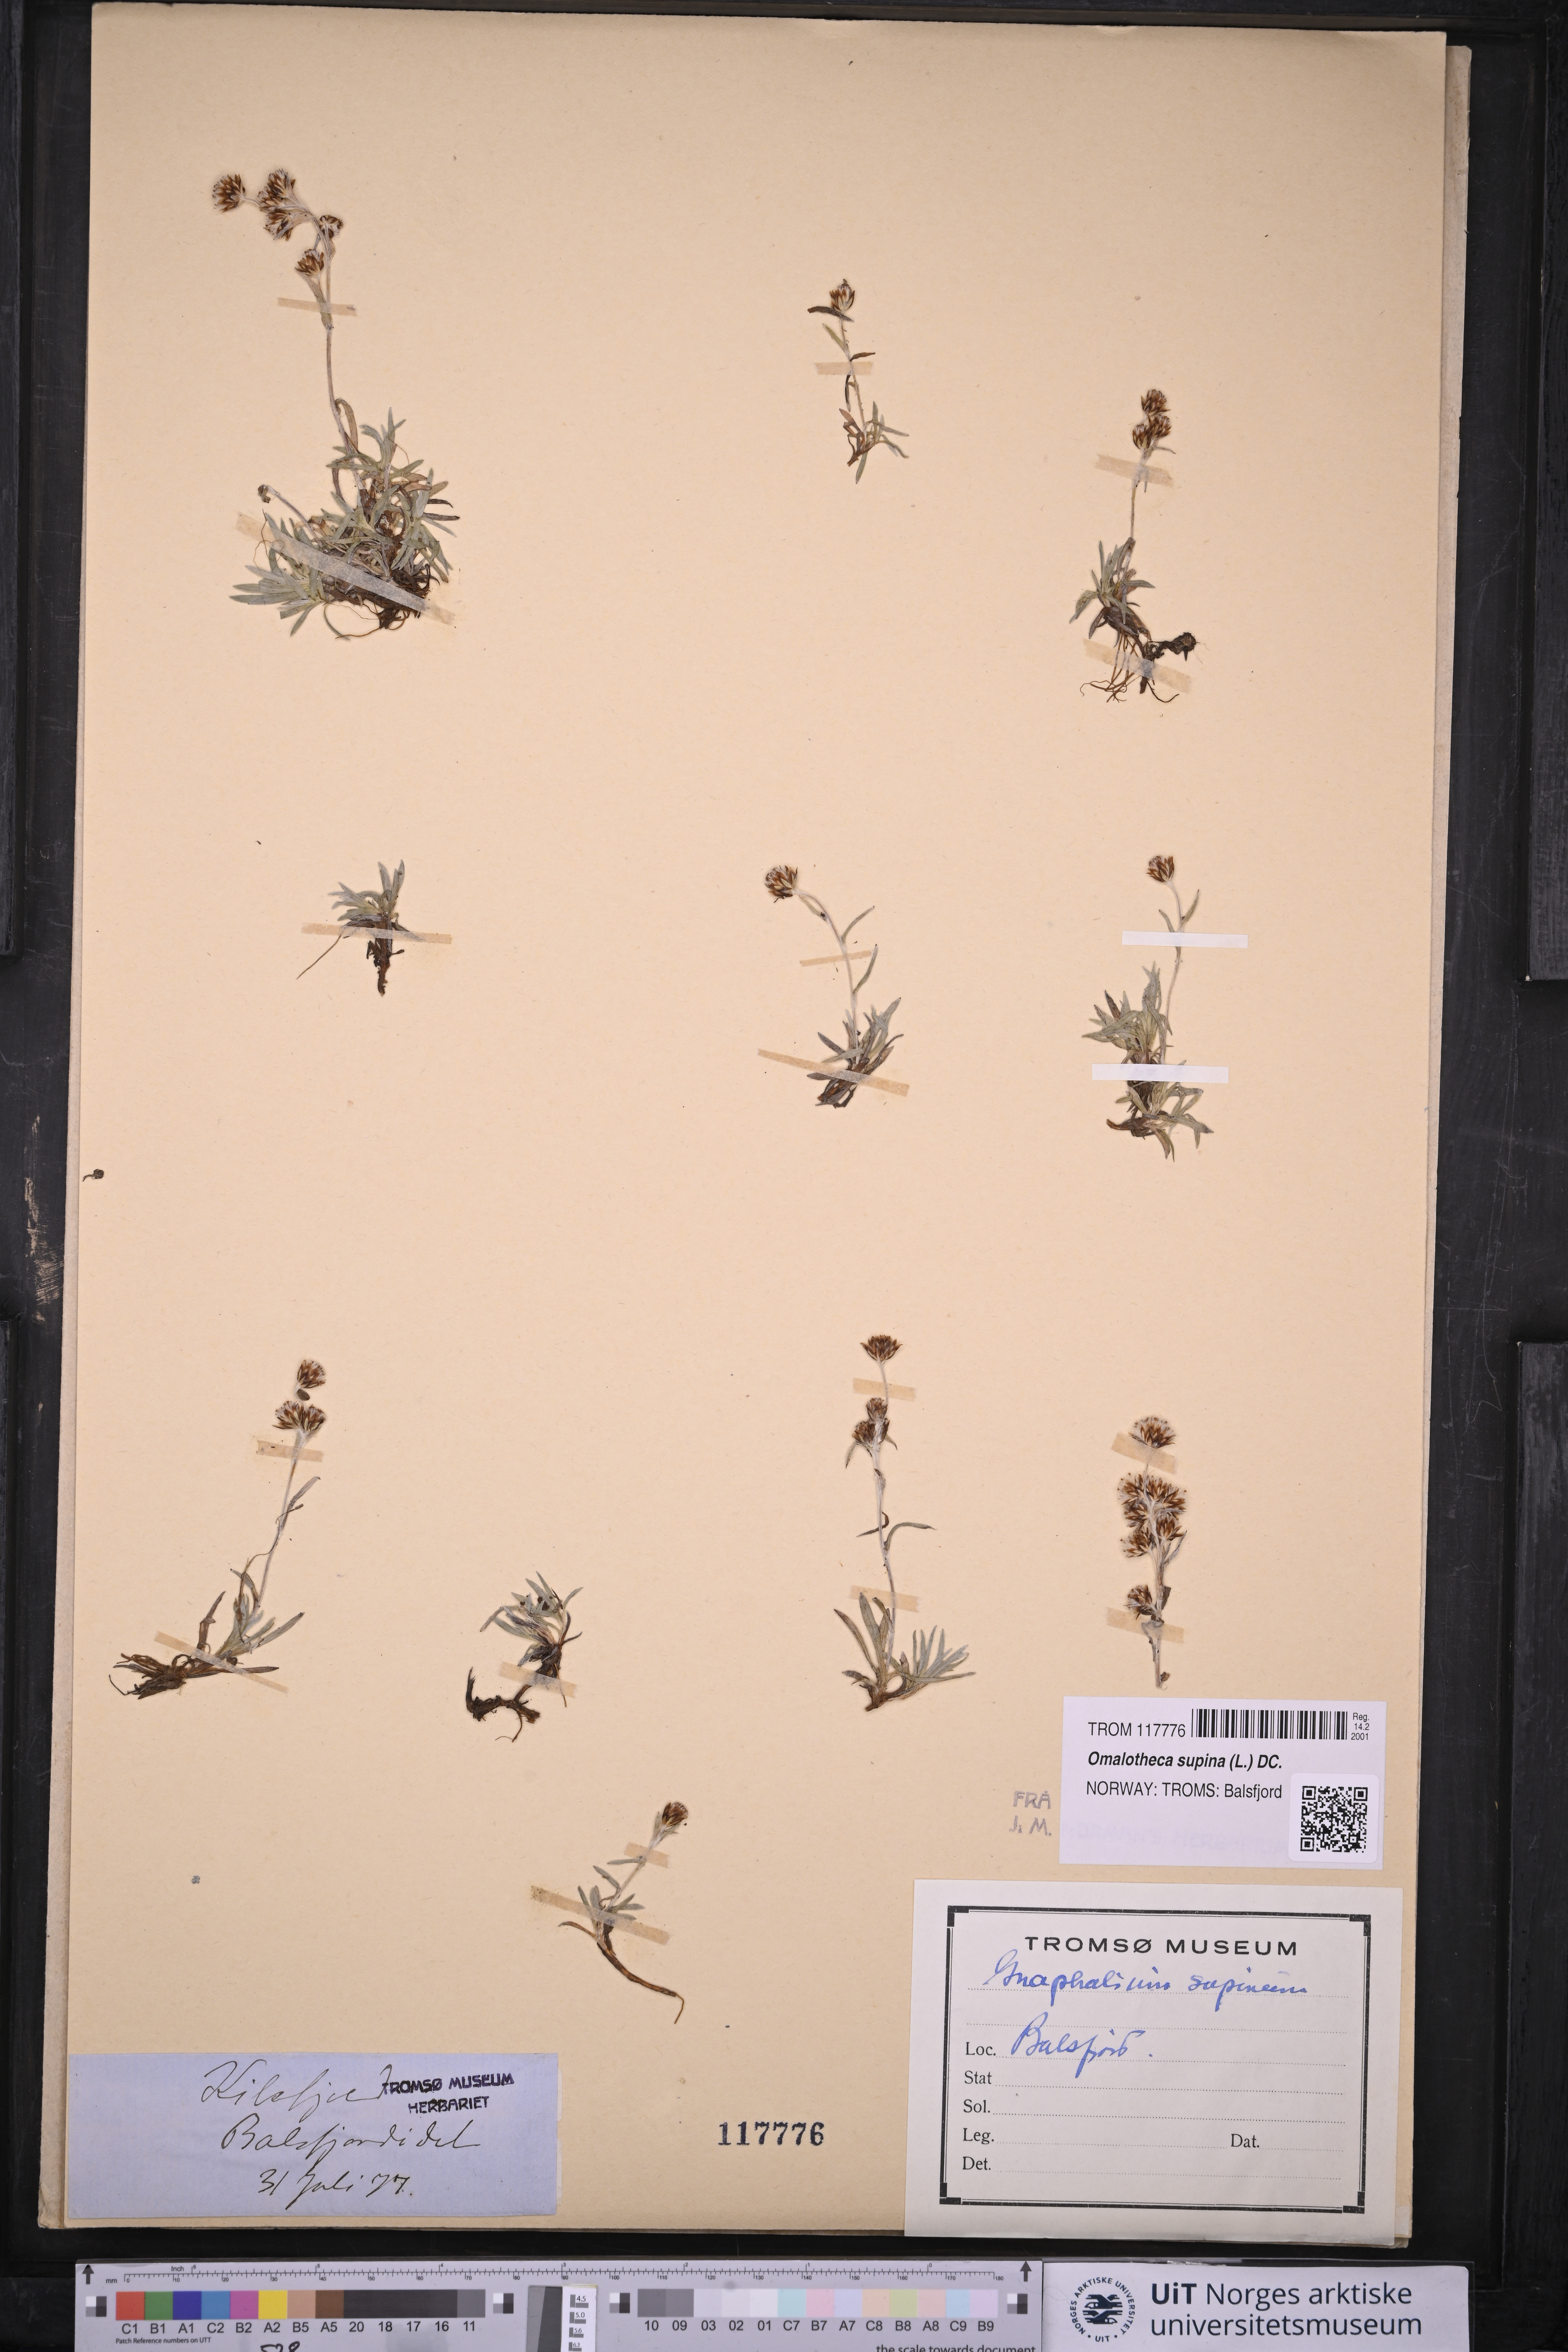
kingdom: Plantae
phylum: Tracheophyta
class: Magnoliopsida
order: Asterales
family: Asteraceae
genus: Omalotheca
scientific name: Omalotheca supina
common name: Alpine arctic-cudweed
